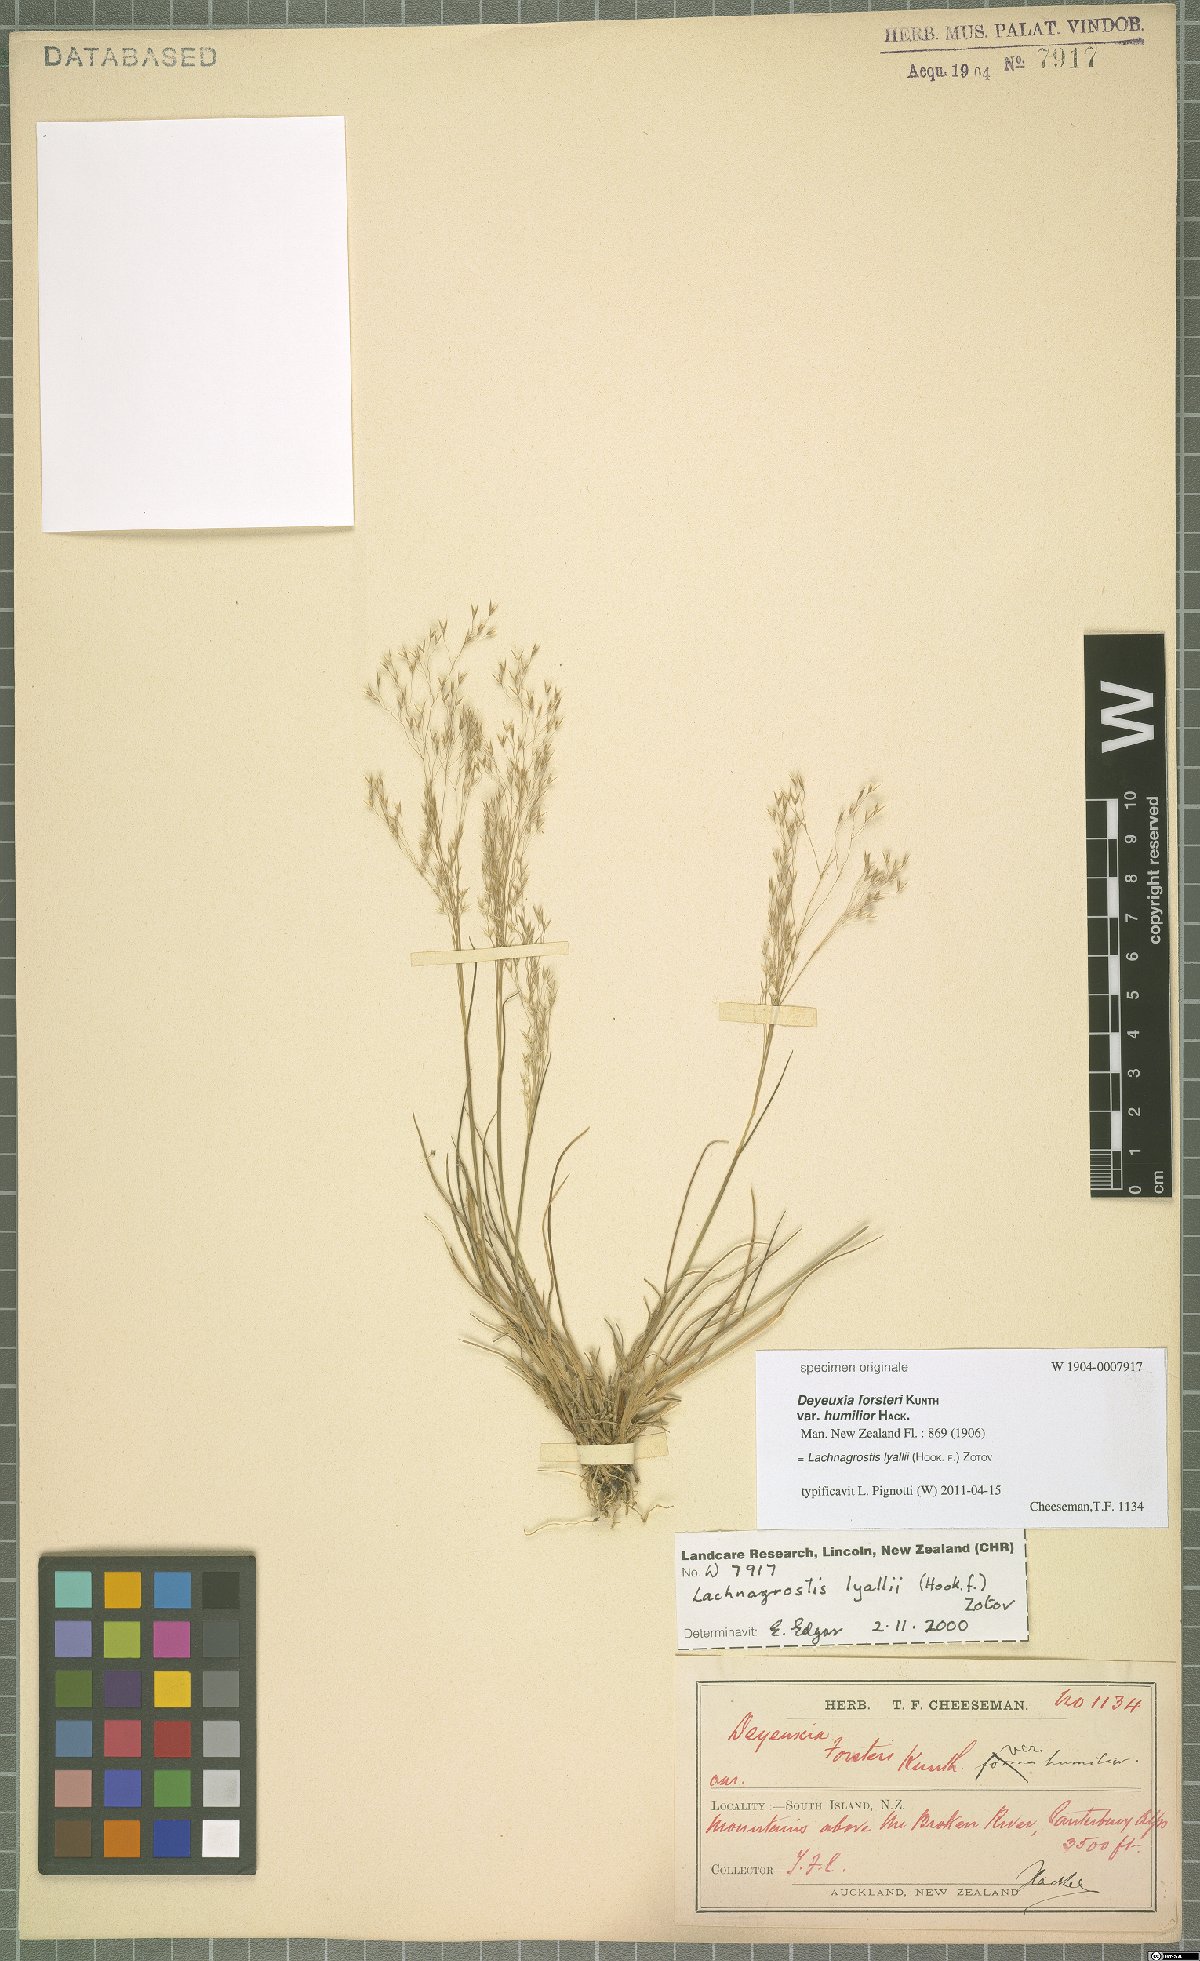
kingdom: Plantae
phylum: Tracheophyta
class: Liliopsida
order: Poales
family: Poaceae
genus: Lachnagrostis
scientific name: Lachnagrostis lyallii
